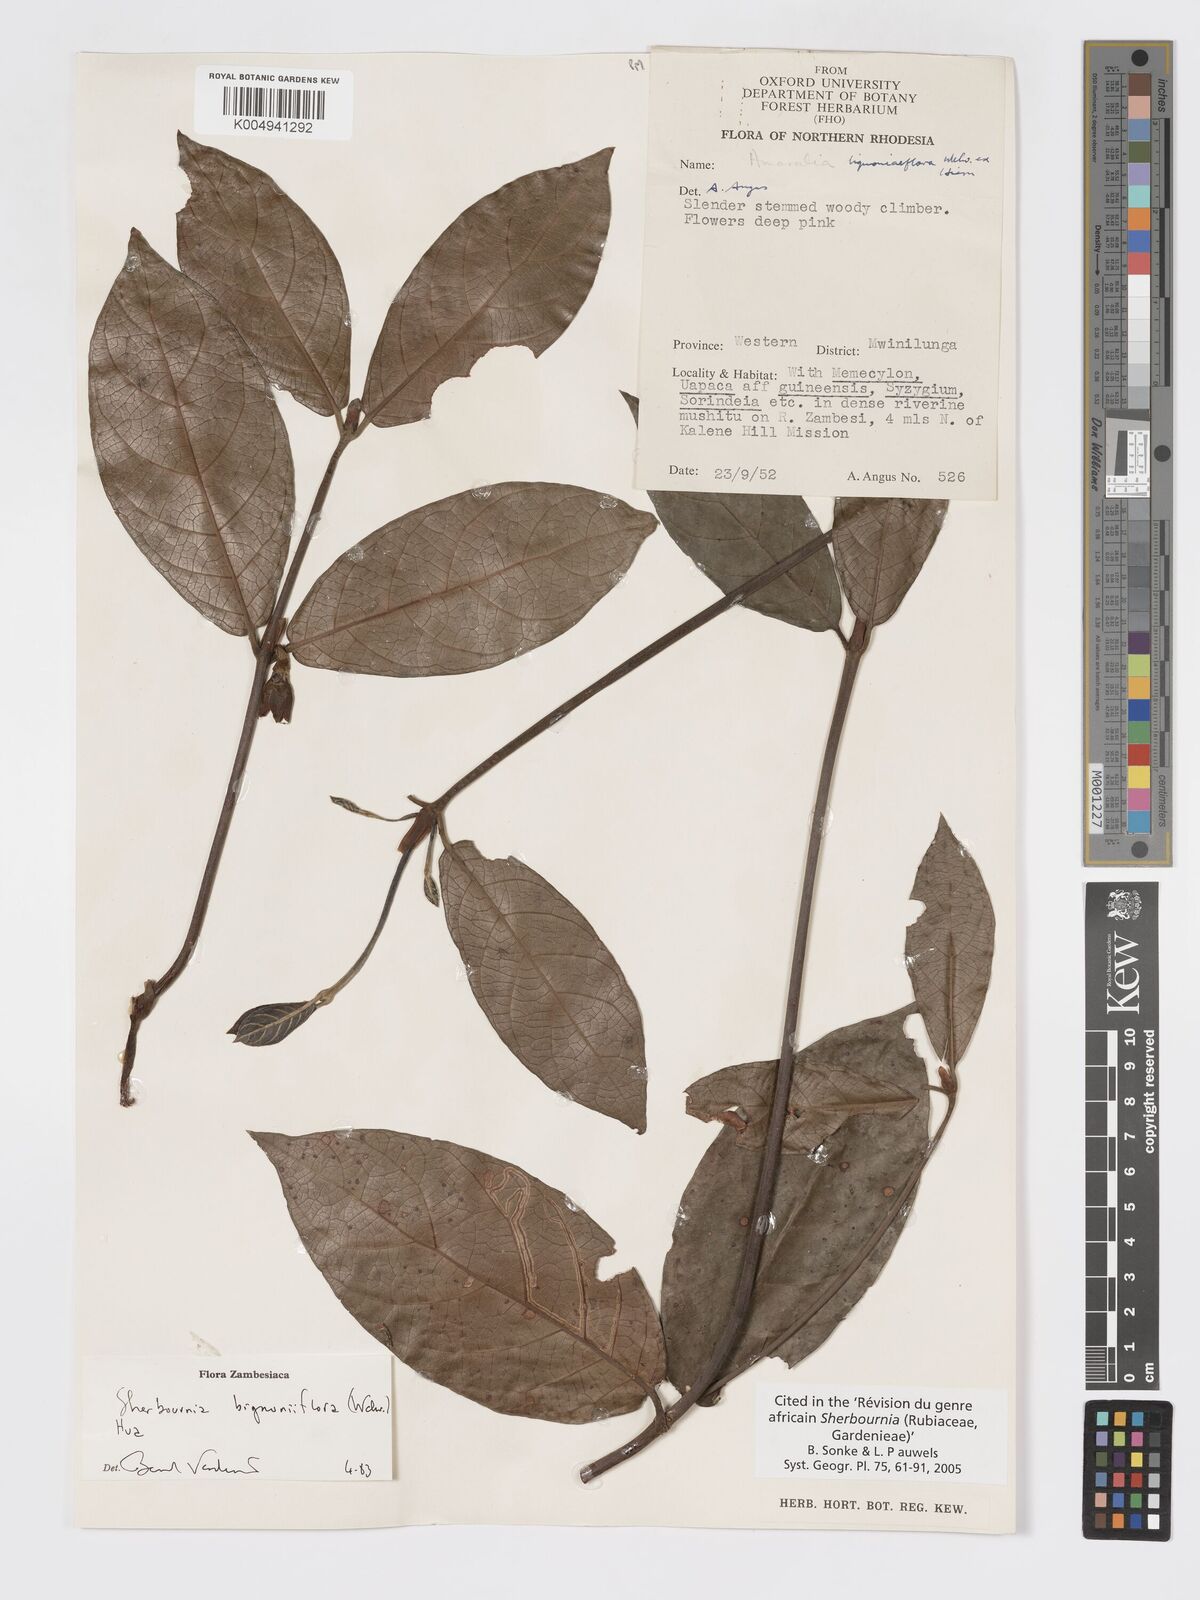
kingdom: Plantae
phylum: Tracheophyta
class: Magnoliopsida
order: Gentianales
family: Rubiaceae
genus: Sherbournia
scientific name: Sherbournia bignoniiflora
